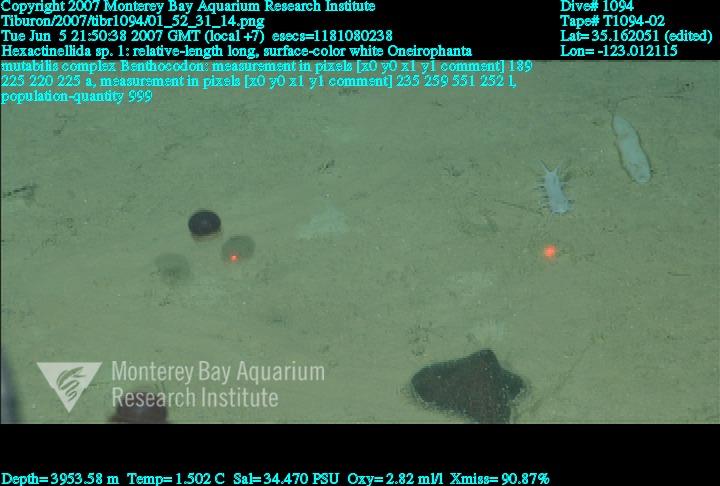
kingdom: Animalia
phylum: Porifera
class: Hexactinellida
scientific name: Hexactinellida
